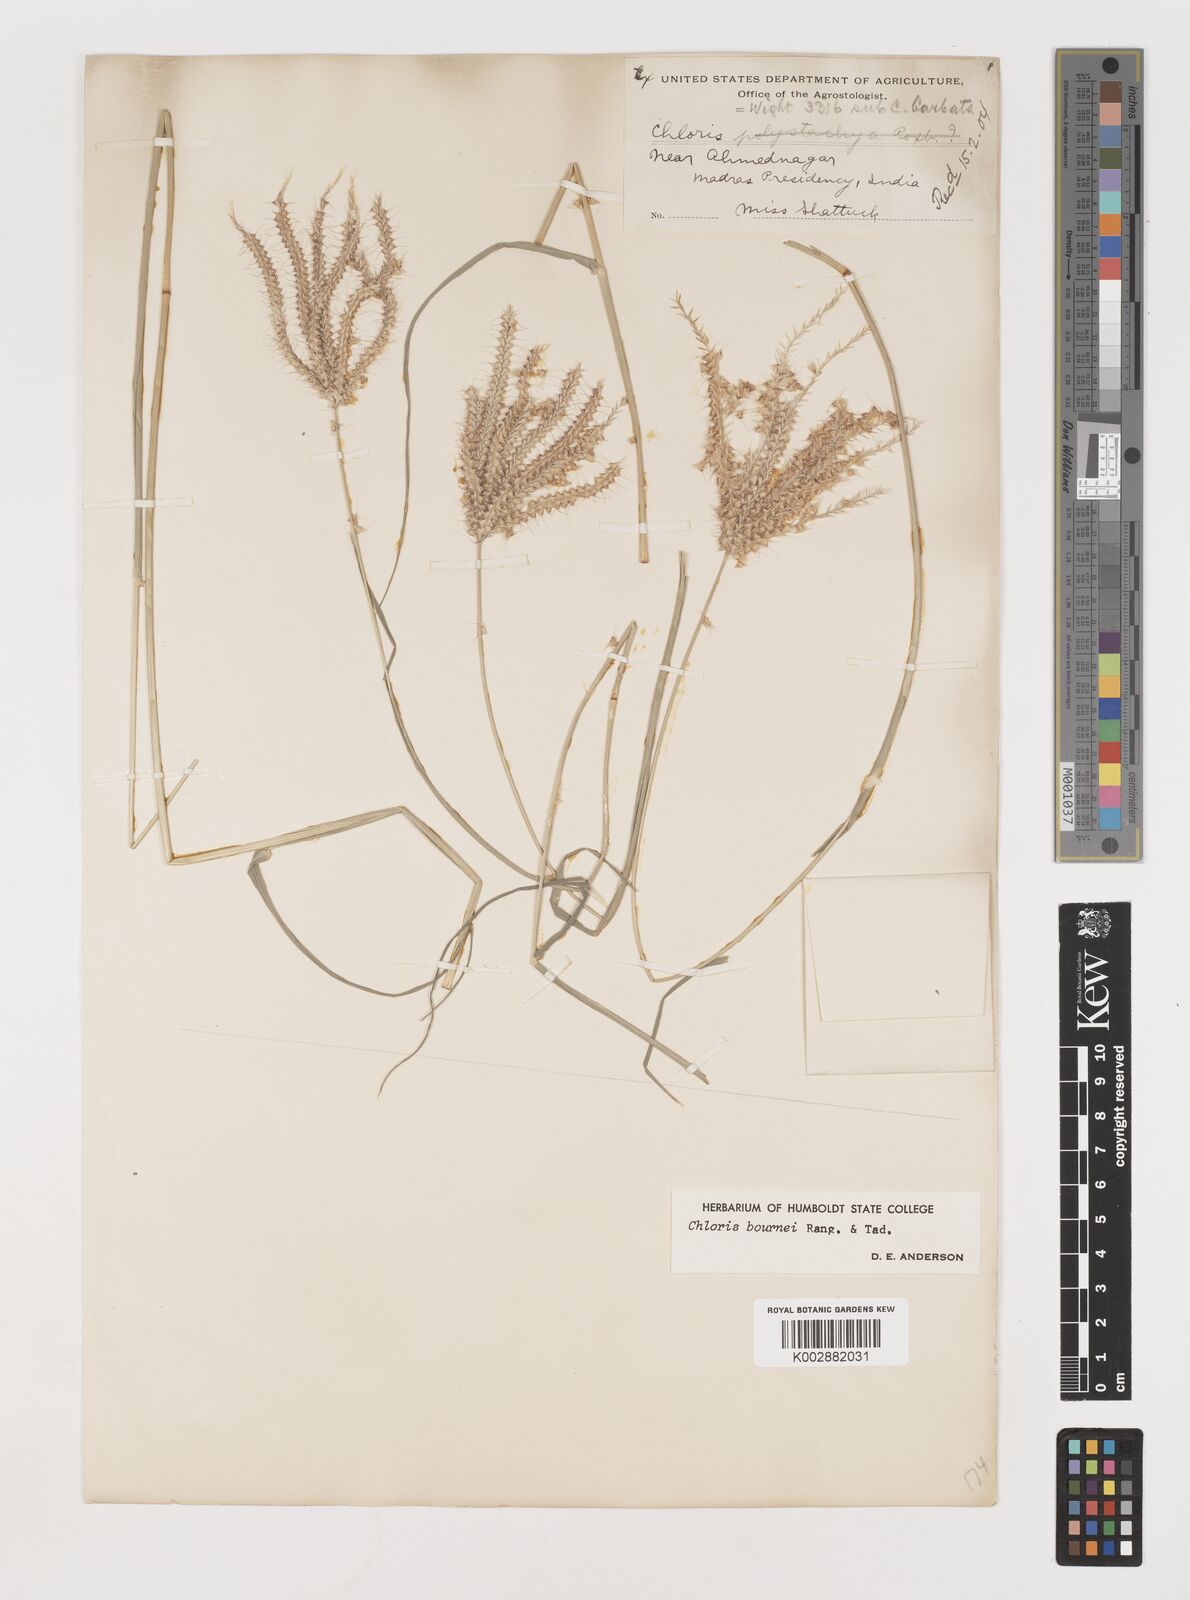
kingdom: Plantae
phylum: Tracheophyta
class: Liliopsida
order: Poales
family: Poaceae
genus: Chloris
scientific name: Chloris bournei
